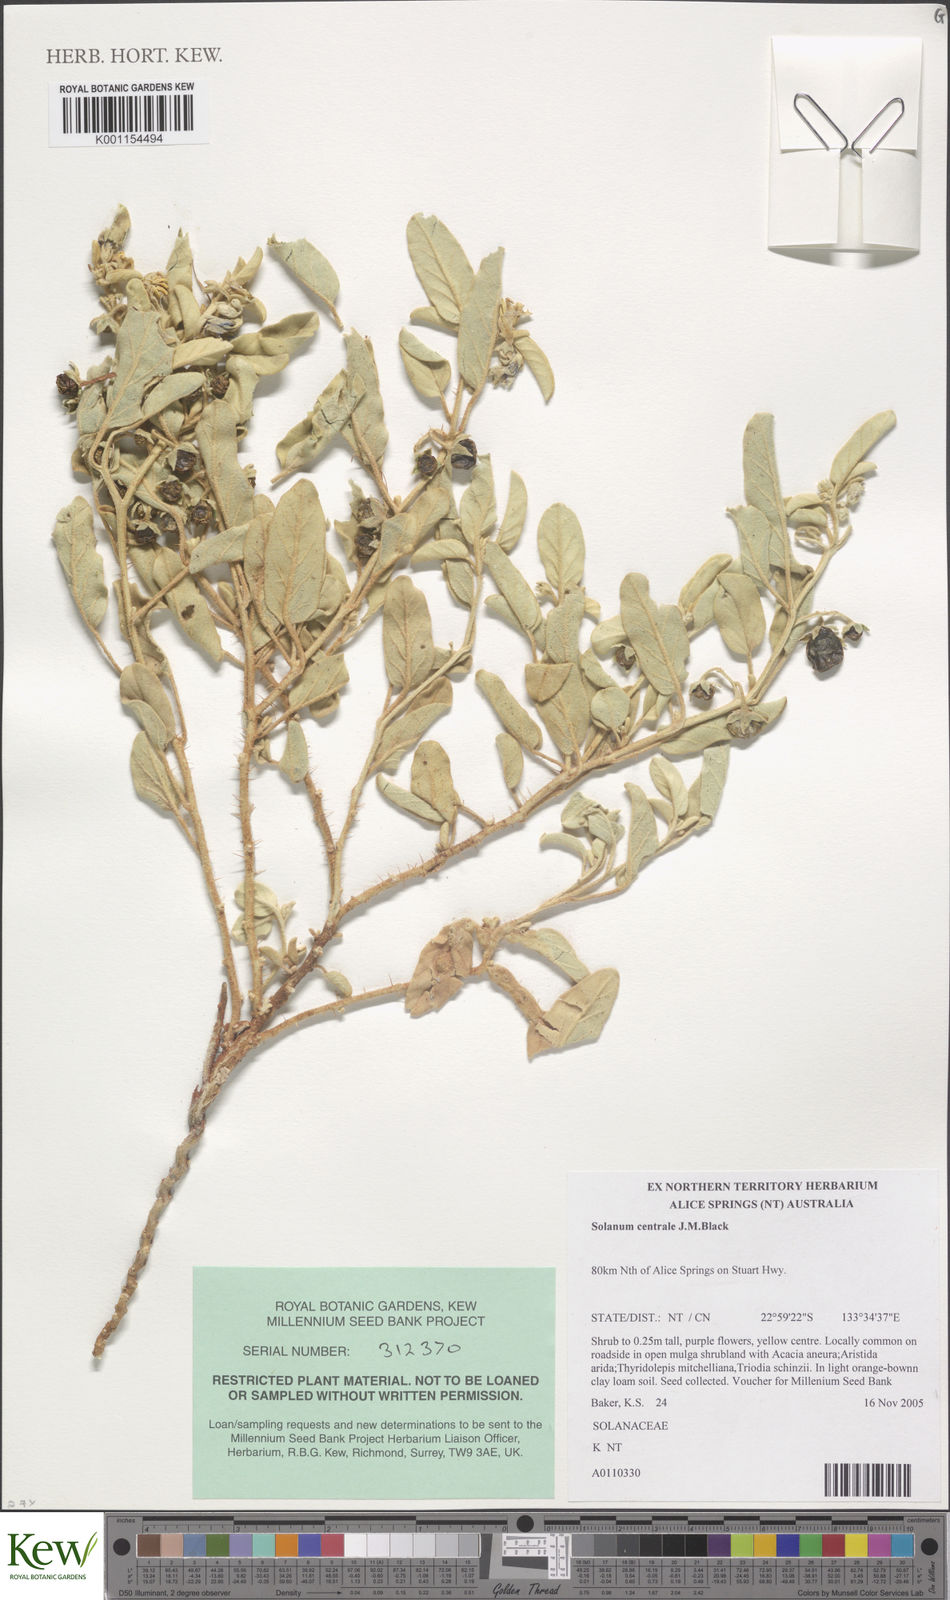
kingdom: Plantae
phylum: Tracheophyta
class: Magnoliopsida
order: Solanales
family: Solanaceae
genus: Solanum
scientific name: Solanum centrale
